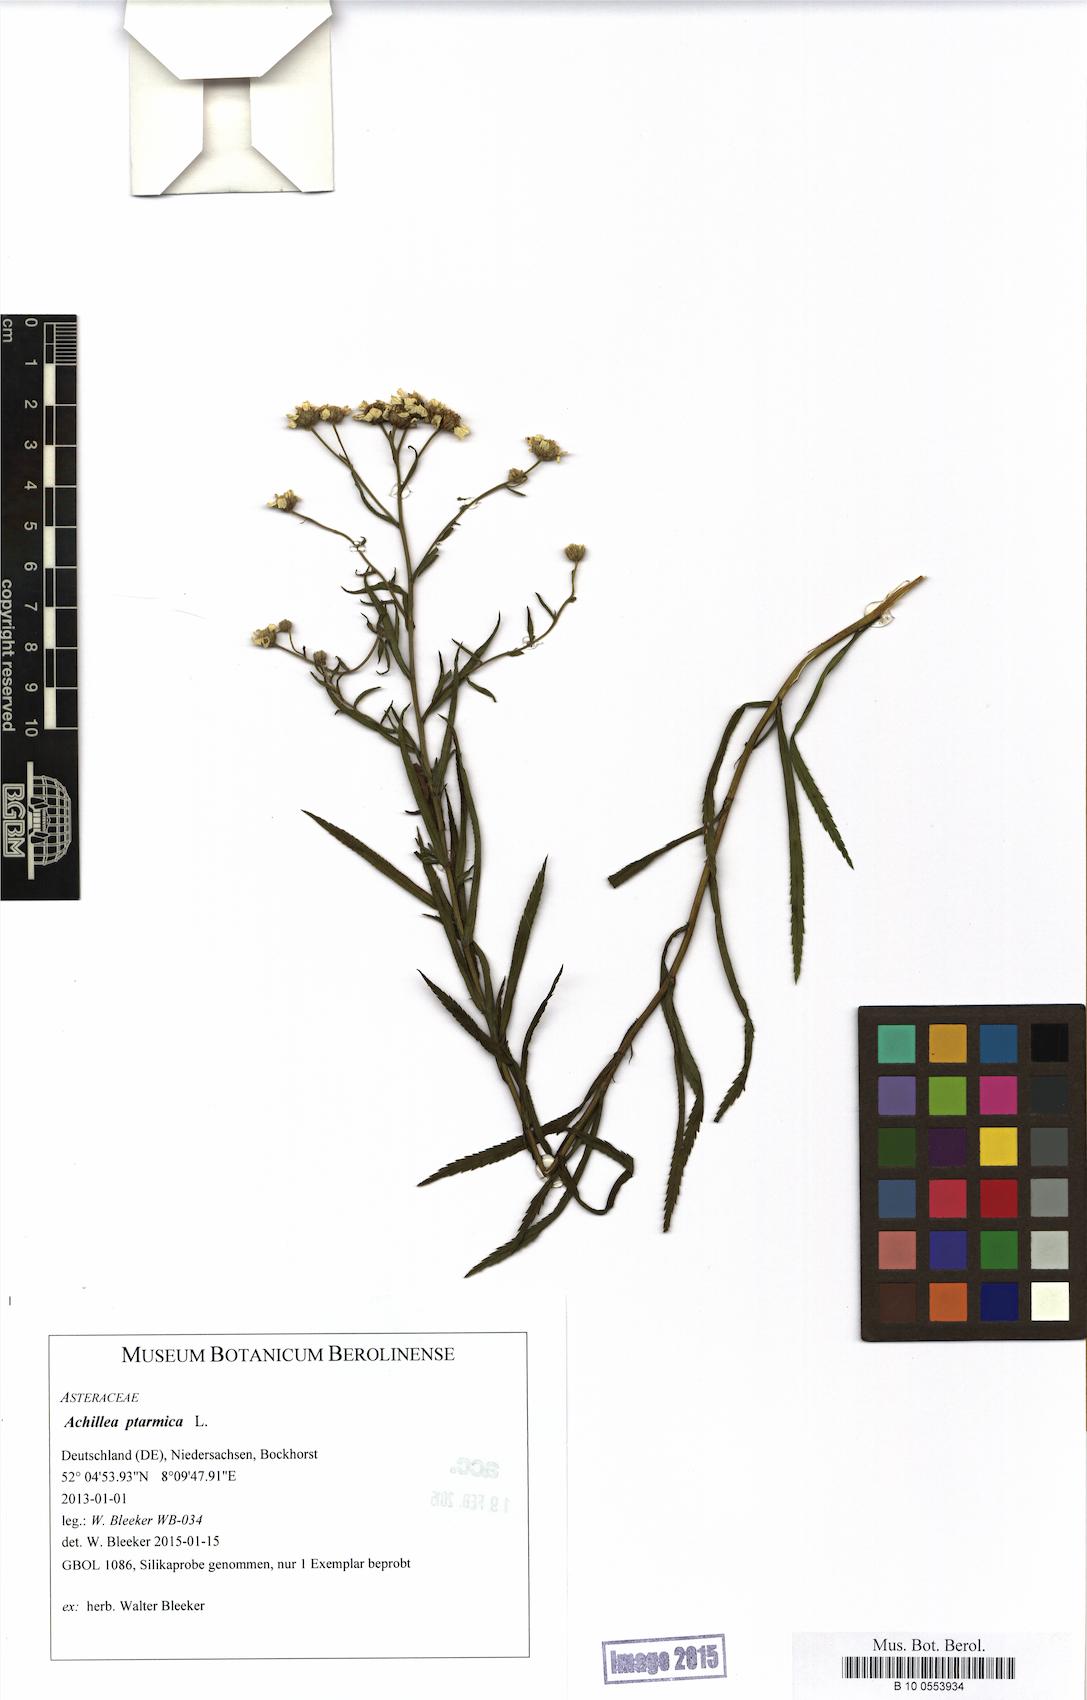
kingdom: Plantae
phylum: Tracheophyta
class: Magnoliopsida
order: Asterales
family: Asteraceae
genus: Achillea
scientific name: Achillea ptarmica
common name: Sneezeweed
